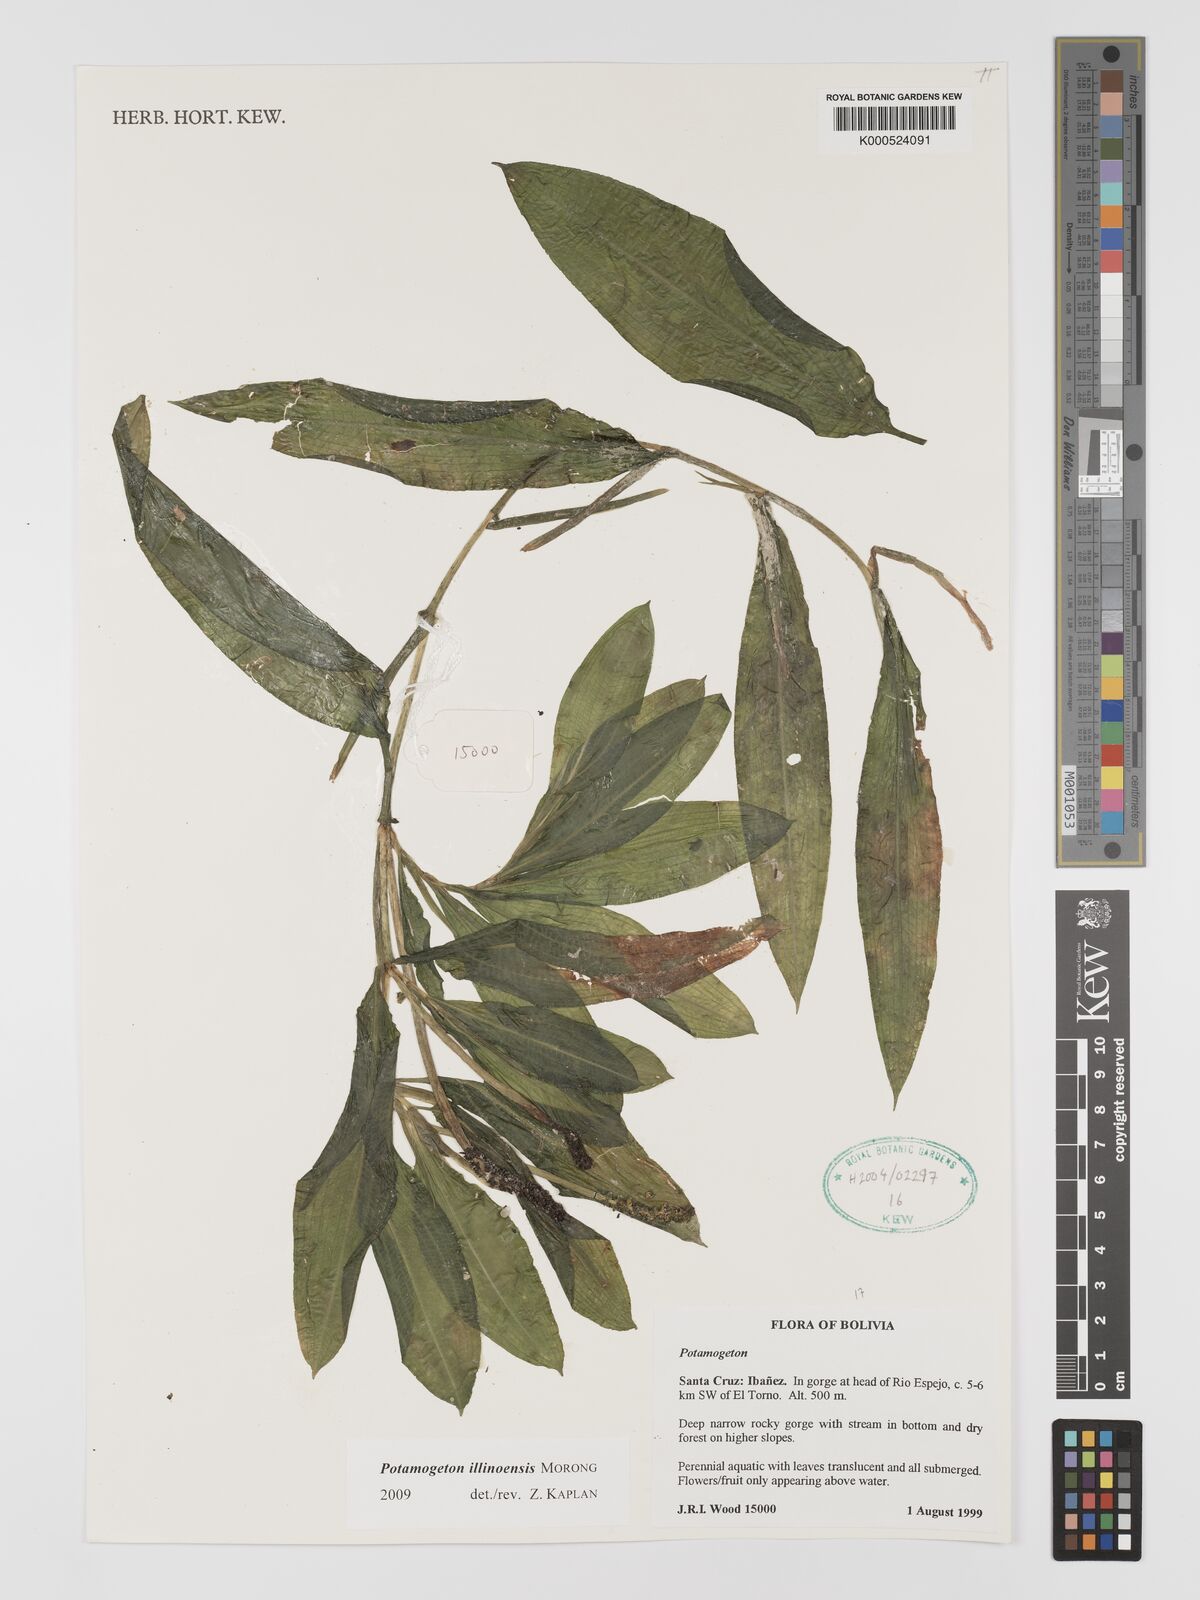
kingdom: Plantae
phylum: Tracheophyta
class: Liliopsida
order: Alismatales
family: Potamogetonaceae
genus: Potamogeton
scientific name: Potamogeton illinoensis
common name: Illinois pondweed
